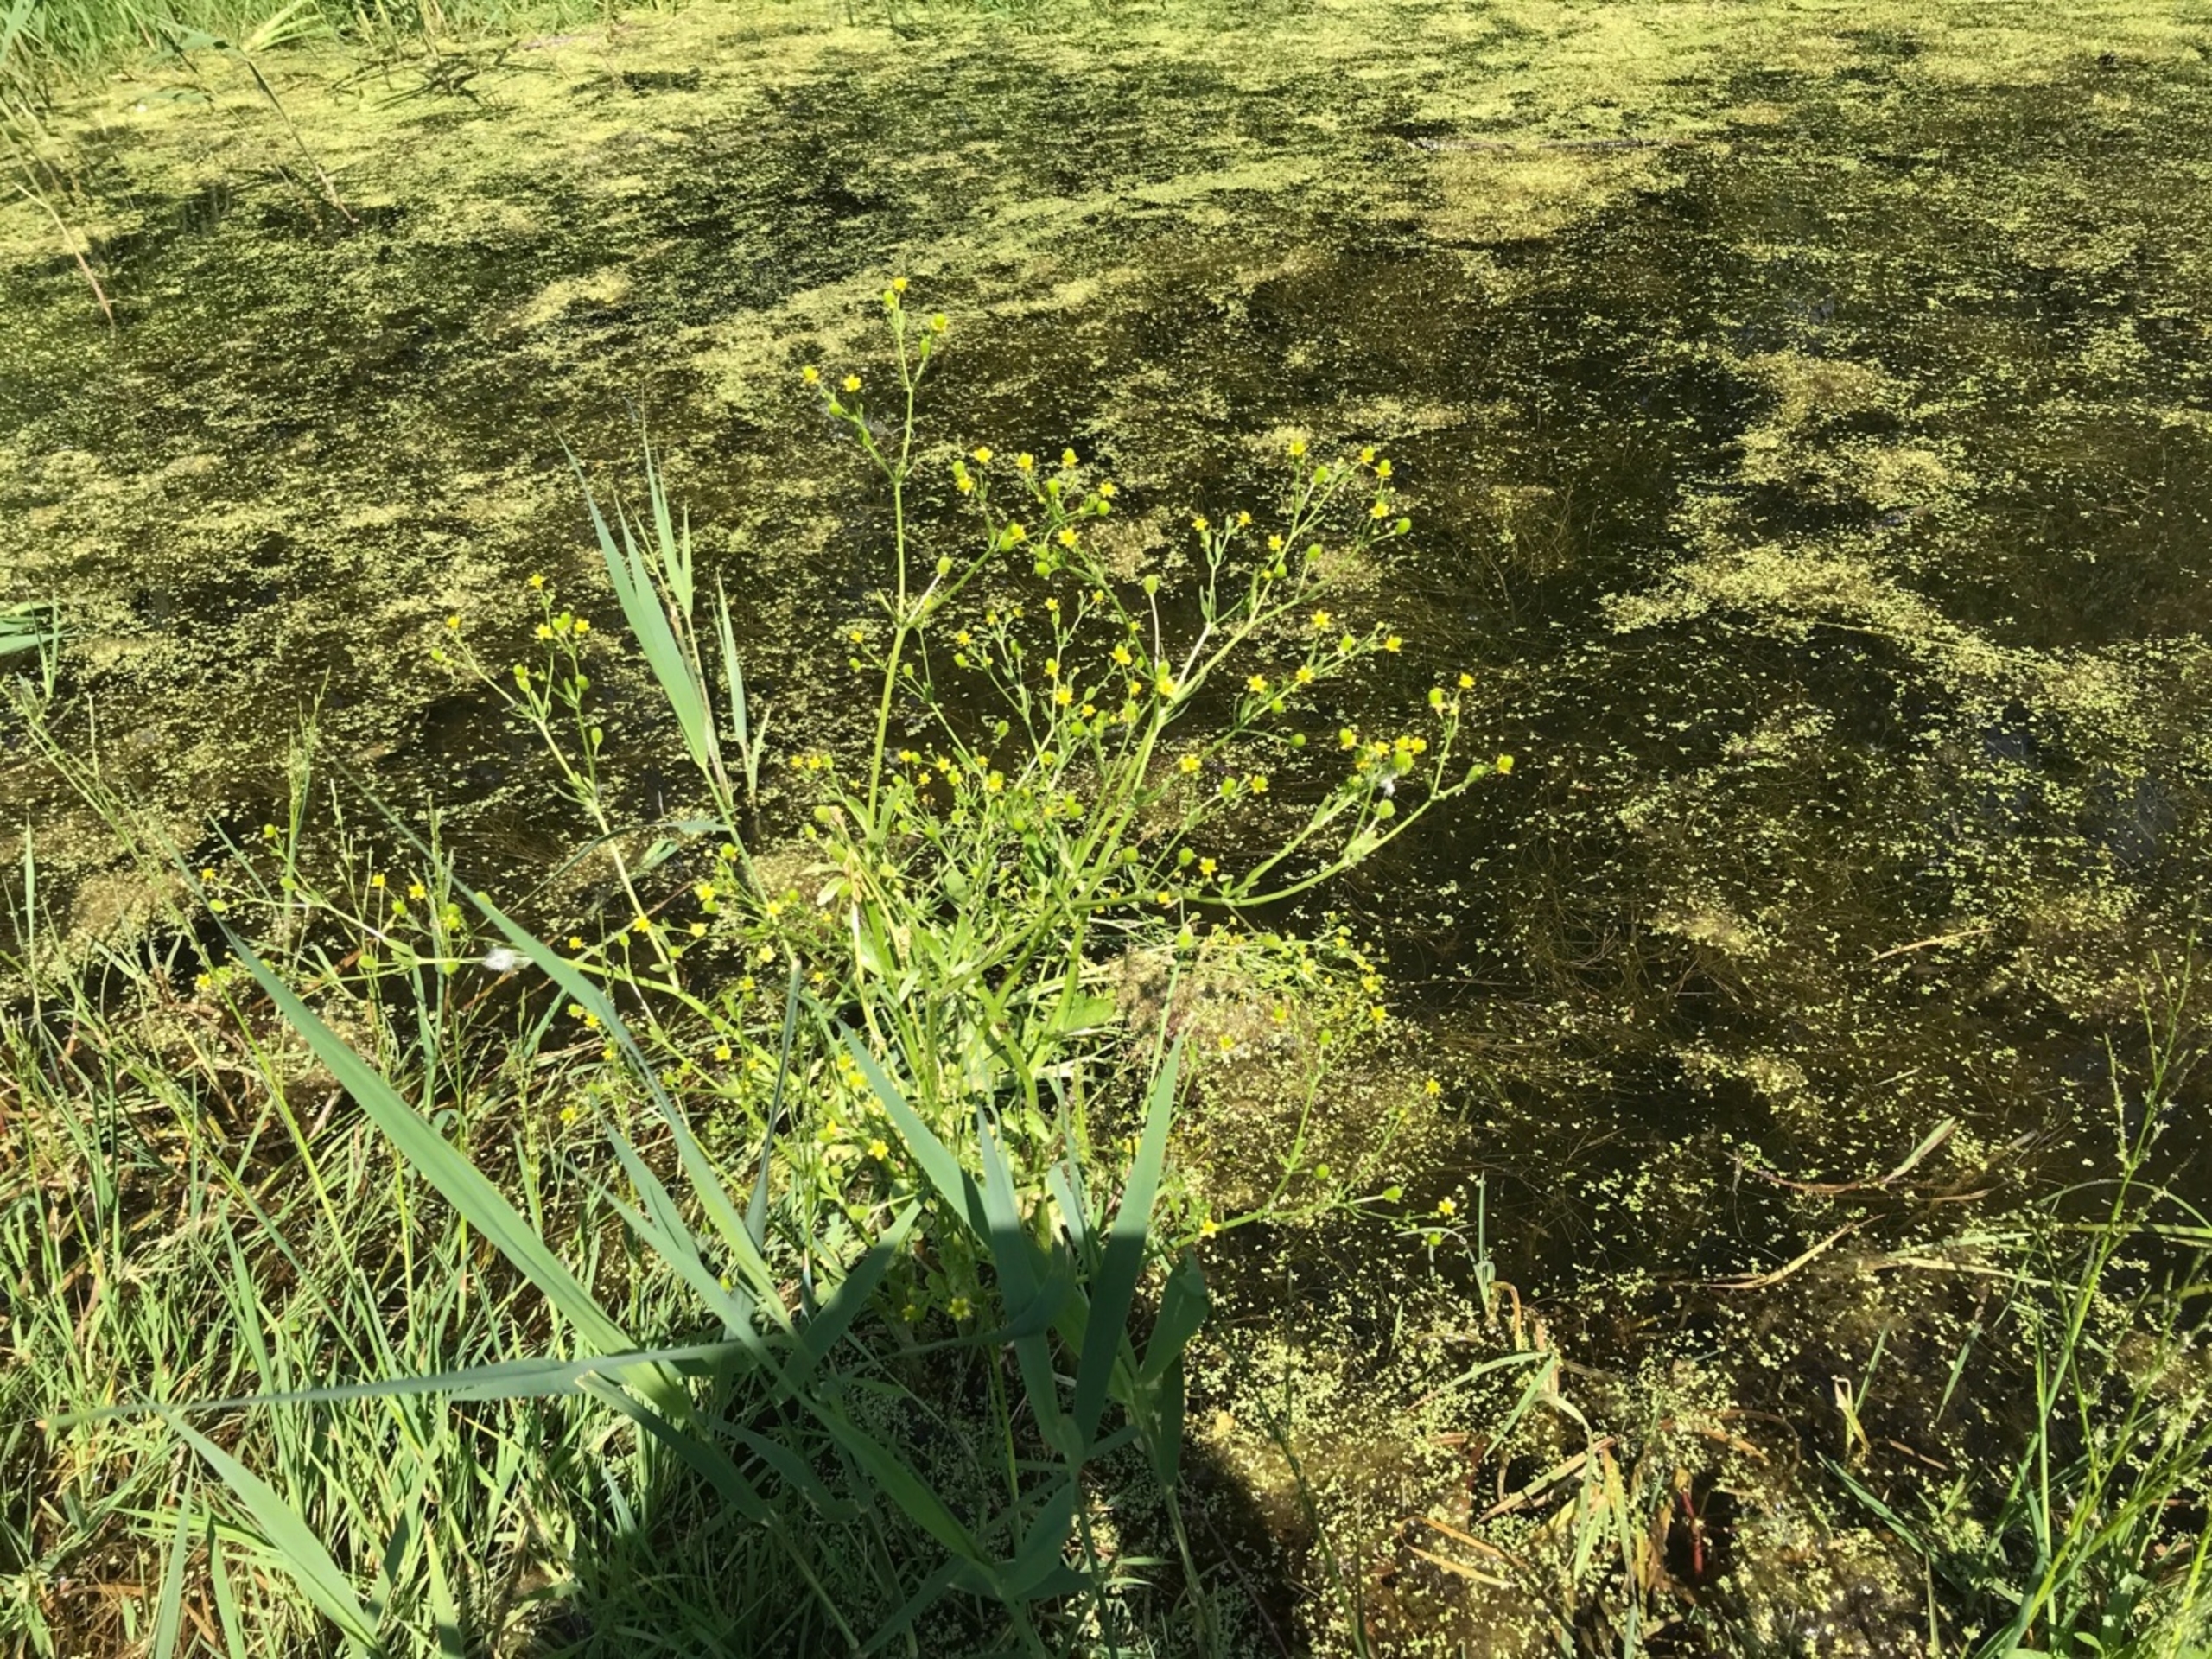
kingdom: Plantae
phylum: Tracheophyta
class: Magnoliopsida
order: Ranunculales
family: Ranunculaceae
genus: Ranunculus
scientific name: Ranunculus sceleratus
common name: Tigger-ranunkel
